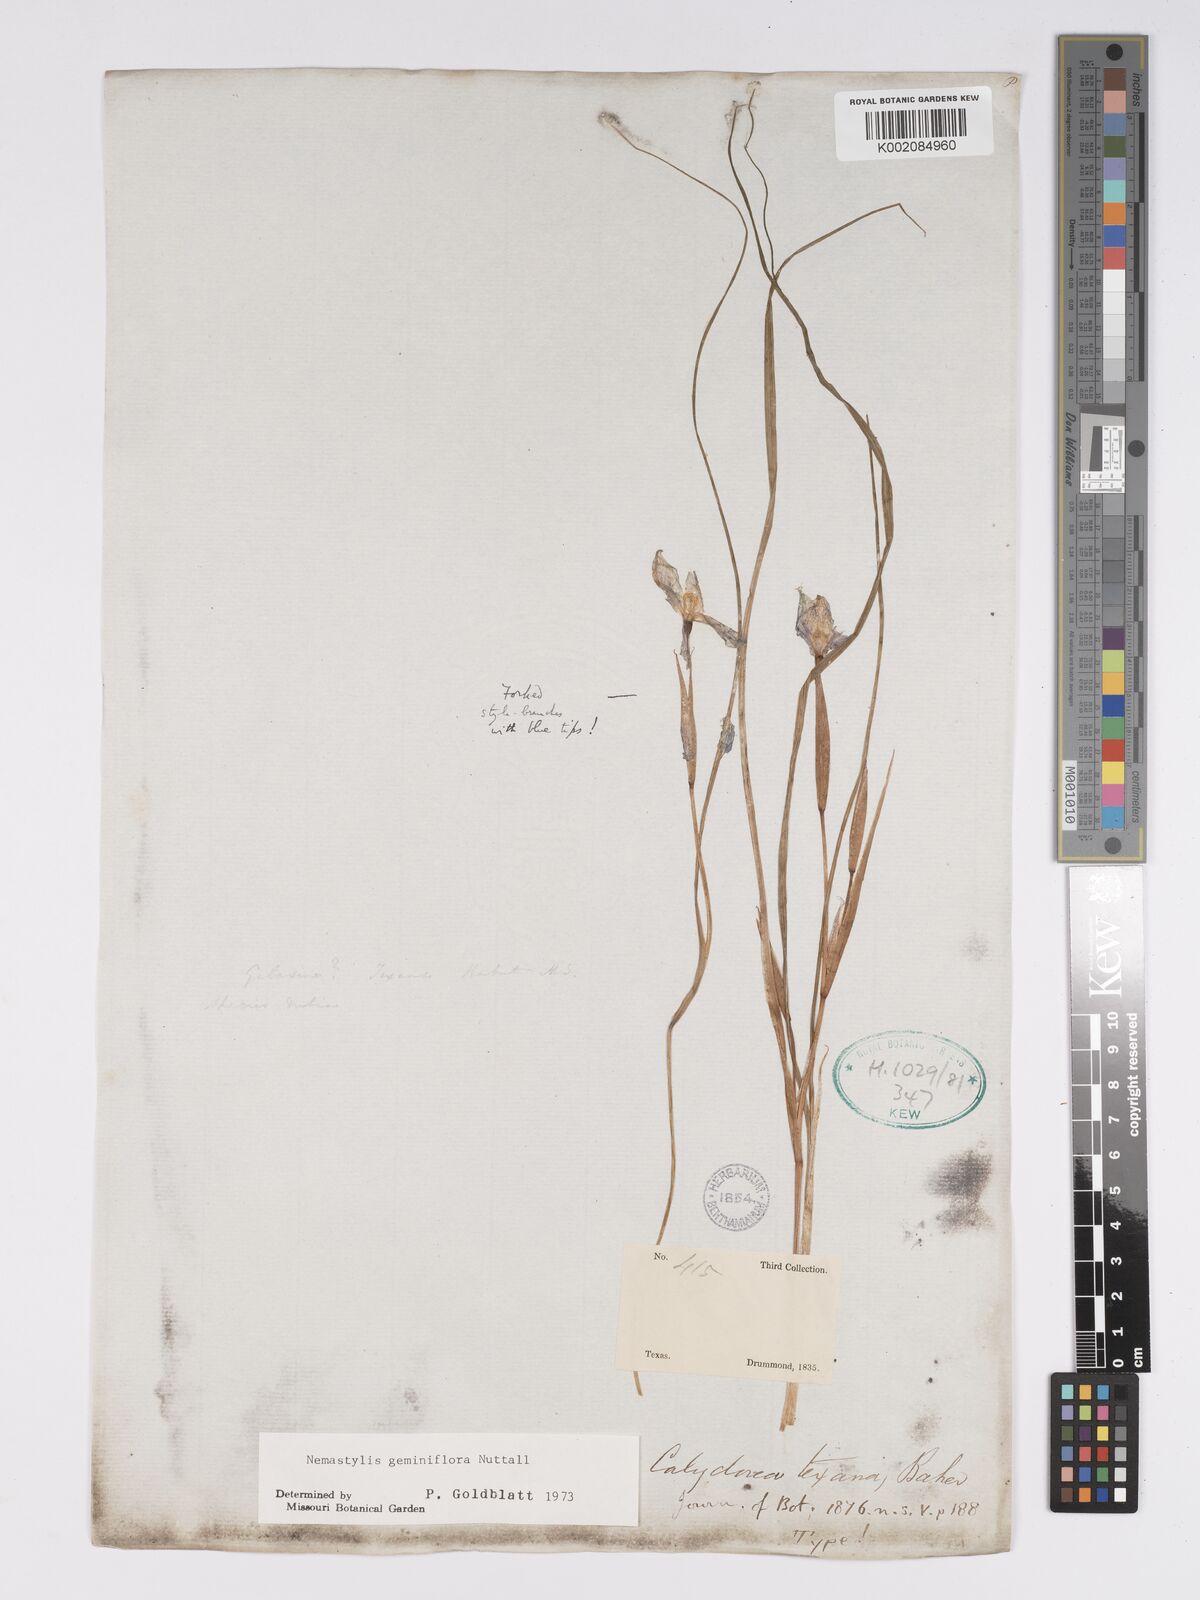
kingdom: Plantae
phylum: Tracheophyta
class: Liliopsida
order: Asparagales
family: Iridaceae
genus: Nemastylis
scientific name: Nemastylis geminiflora
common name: Prairie celestial
